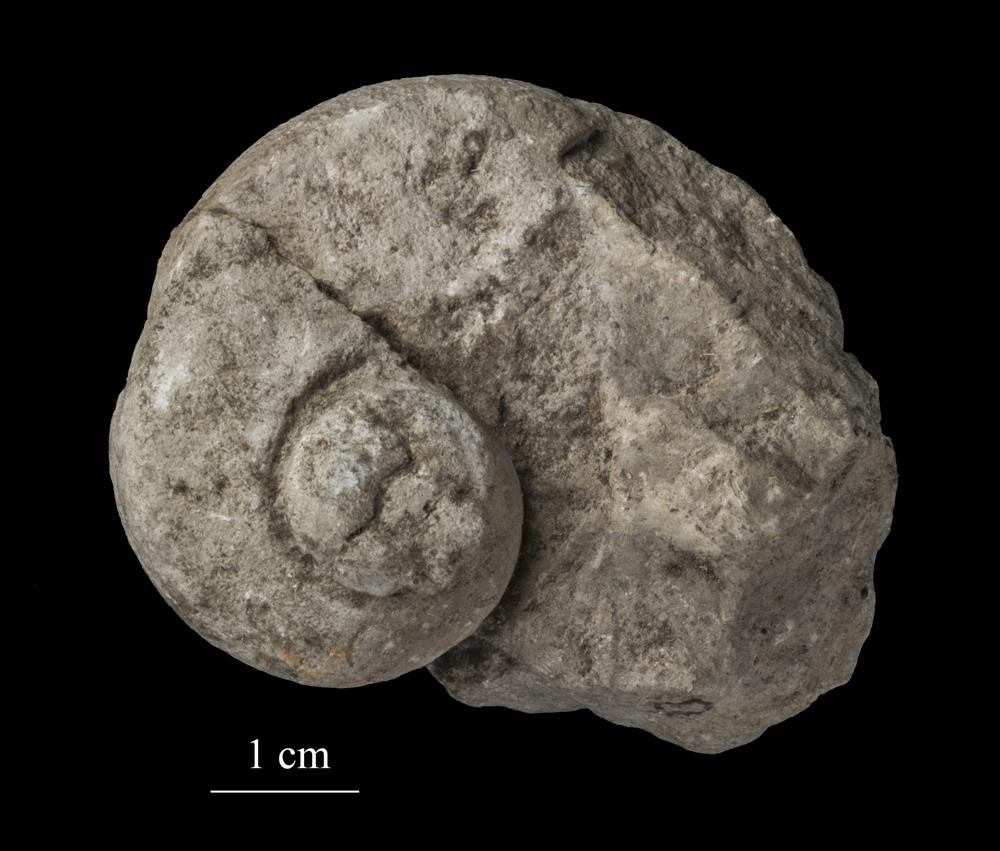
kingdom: Animalia
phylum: Mollusca
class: Gastropoda
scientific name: Gastropoda
